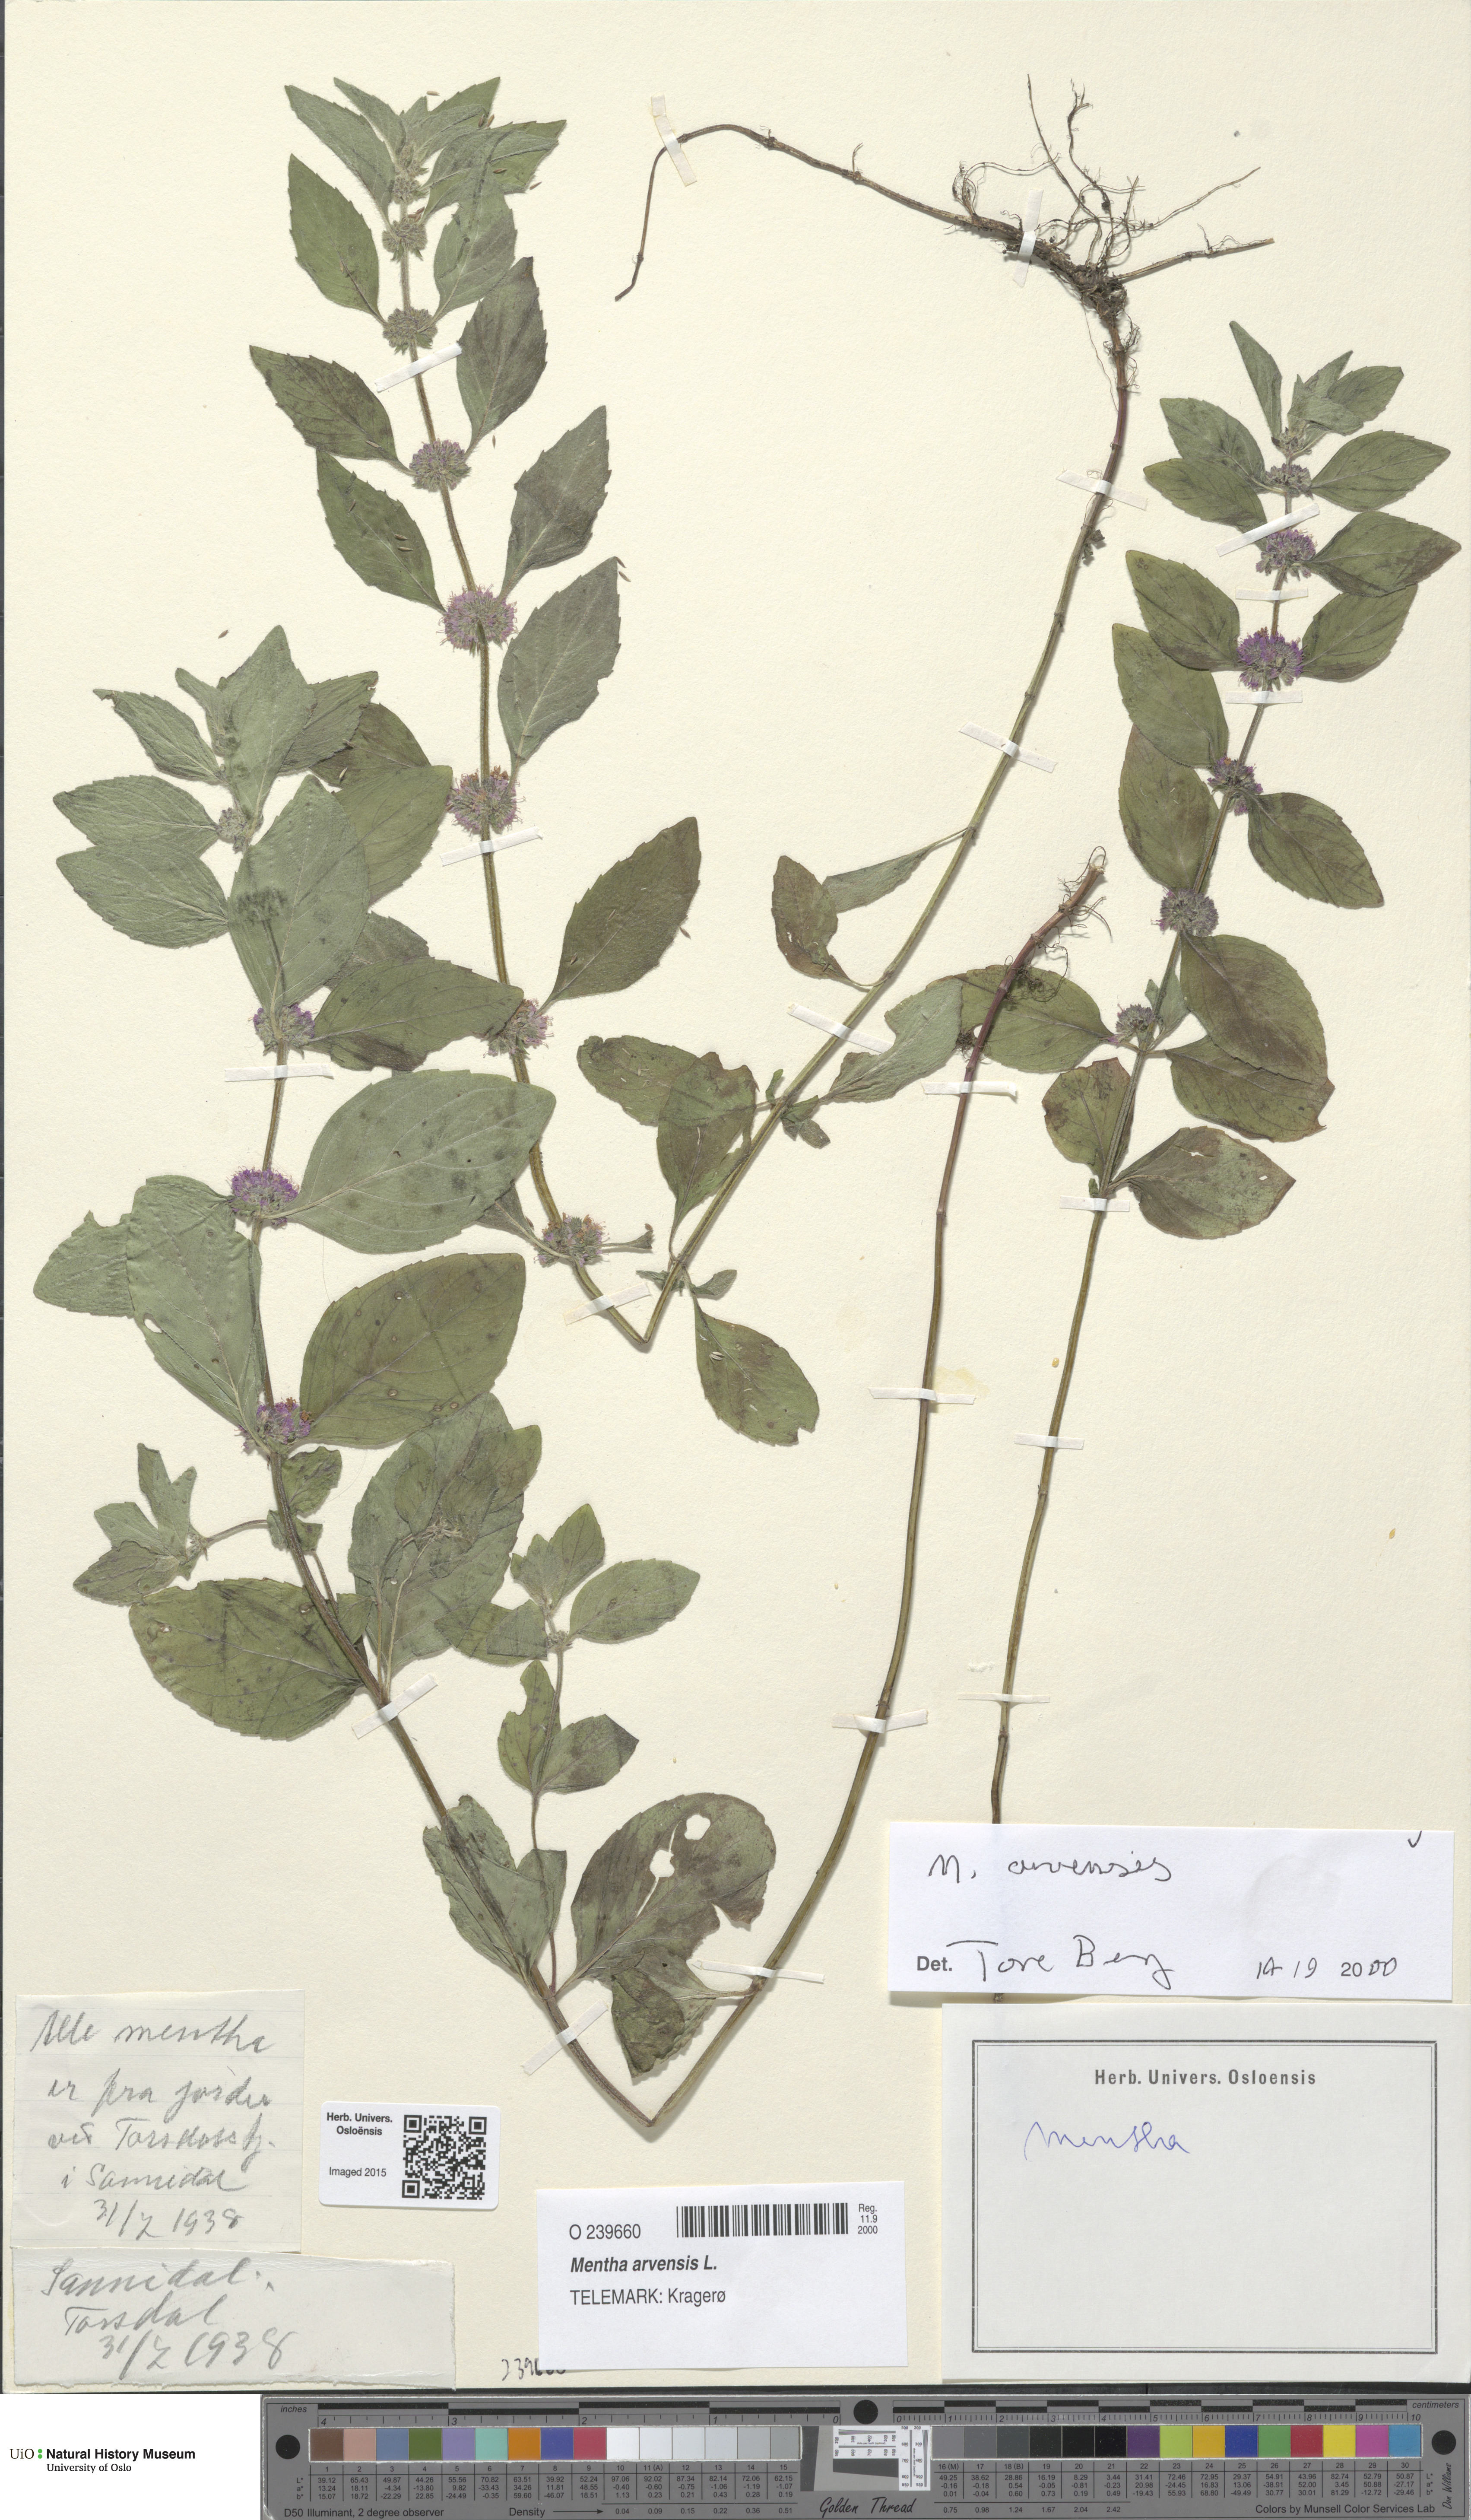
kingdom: Plantae
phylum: Tracheophyta
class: Magnoliopsida
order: Lamiales
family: Lamiaceae
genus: Mentha
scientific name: Mentha arvensis
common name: Corn mint
